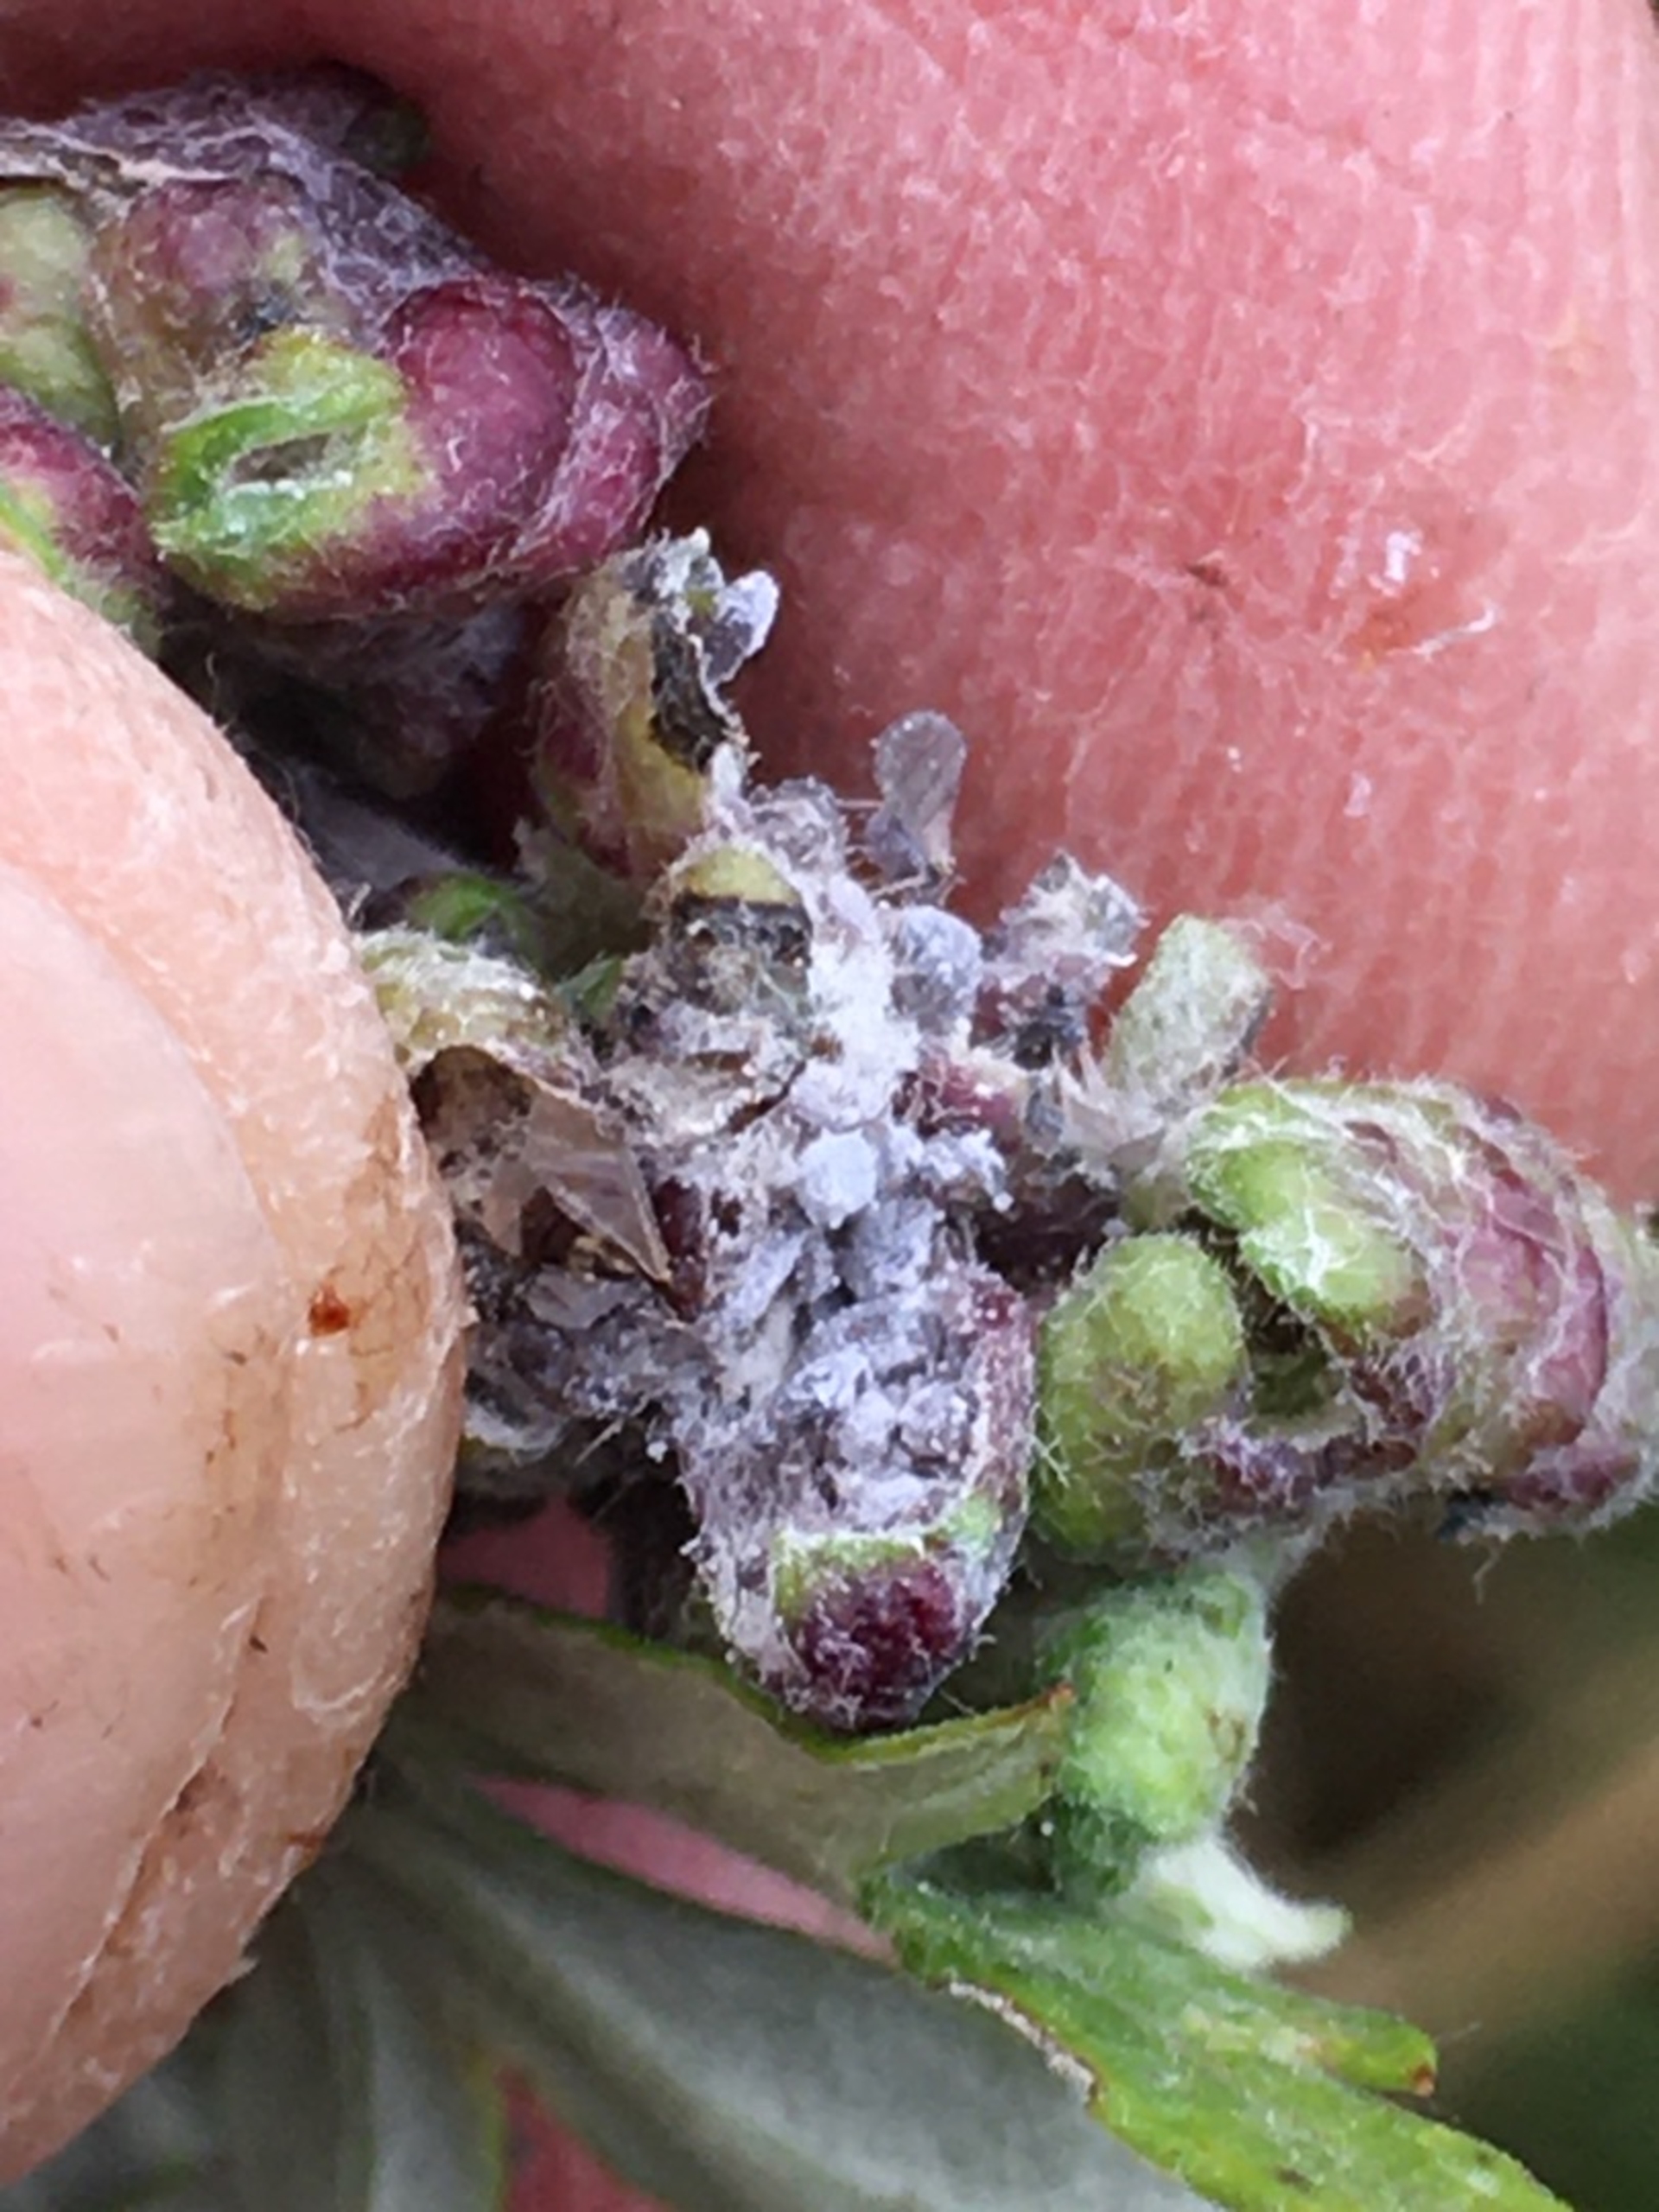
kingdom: Animalia
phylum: Arthropoda
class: Insecta
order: Hemiptera
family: Aphididae
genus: Cryptosiphum
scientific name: Cryptosiphum artemisiae
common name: Bynkegallelus
